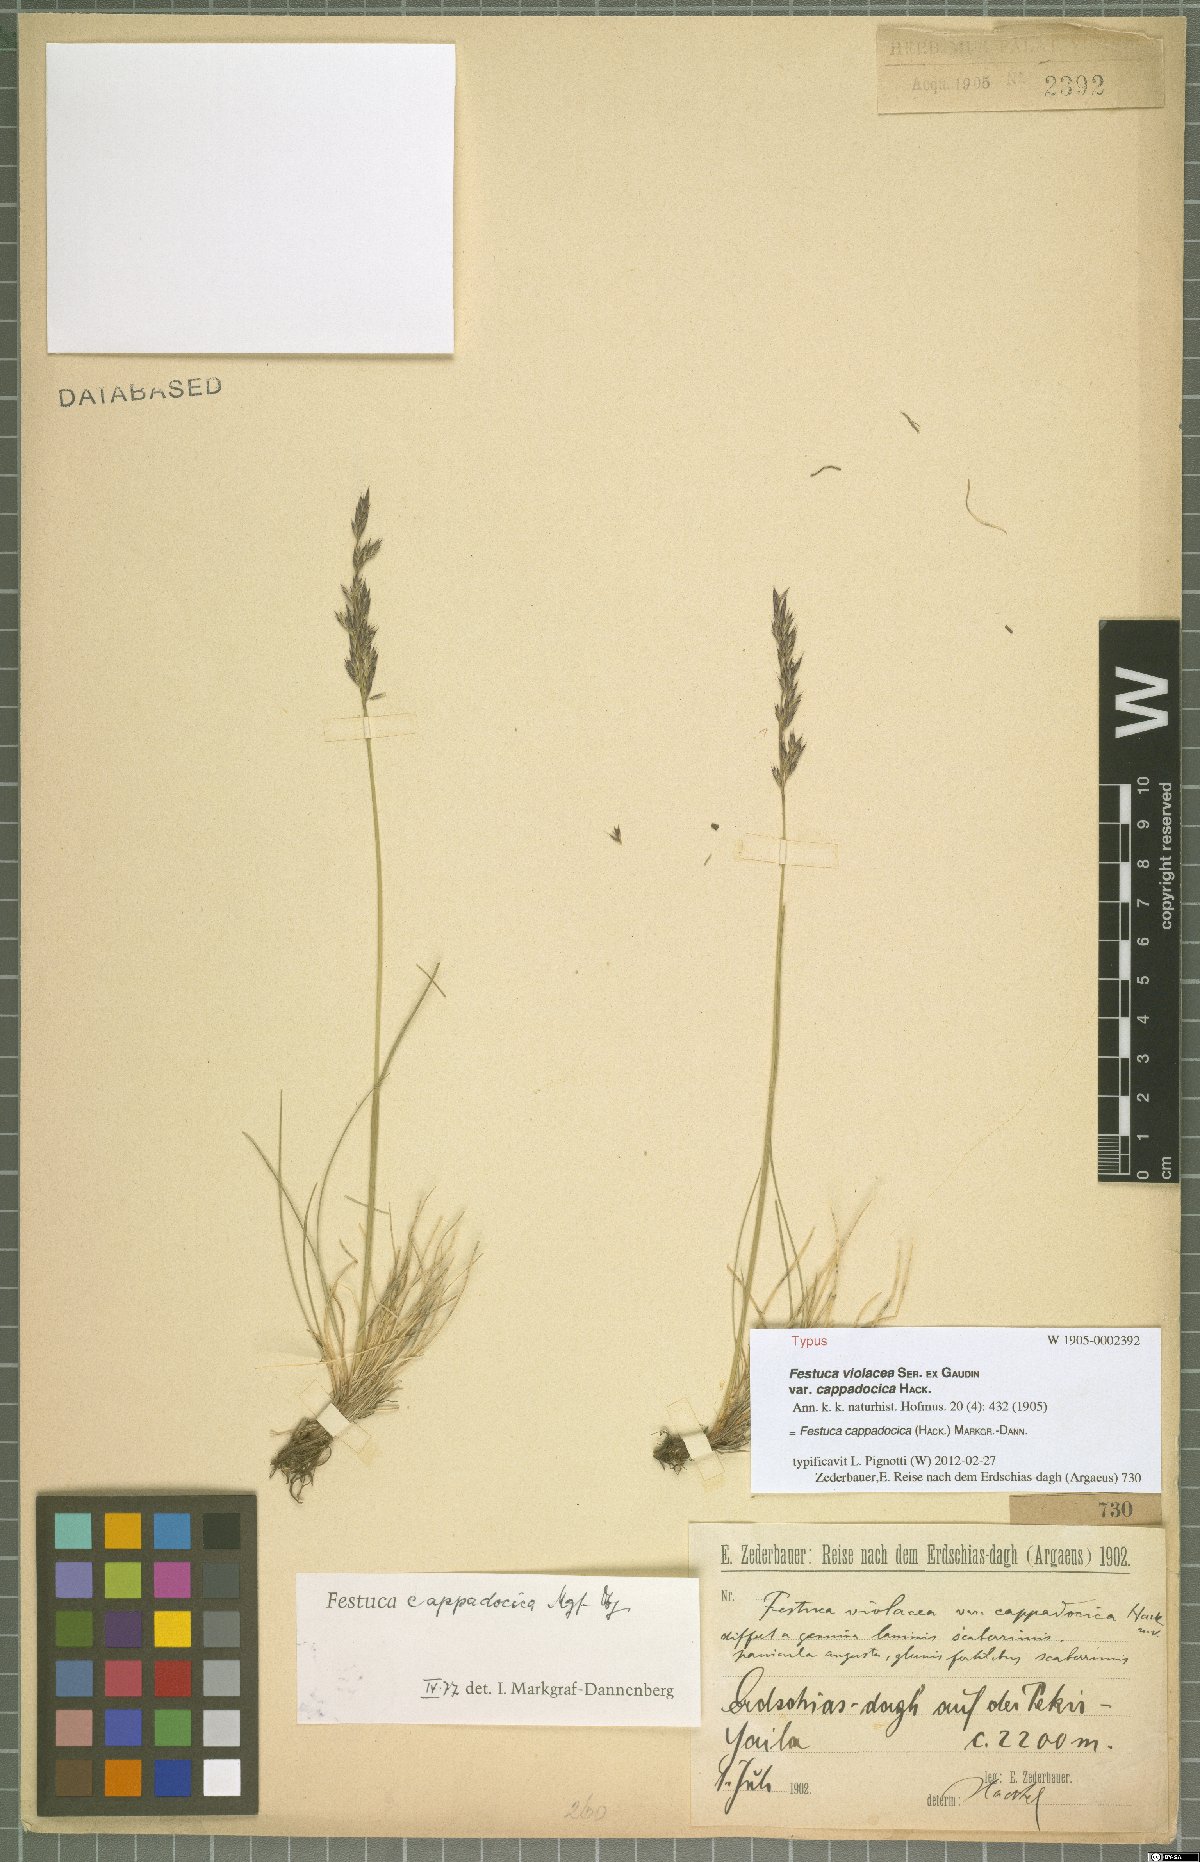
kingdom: Plantae
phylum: Tracheophyta
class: Liliopsida
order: Poales
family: Poaceae
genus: Festuca
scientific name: Festuca cappadocica
